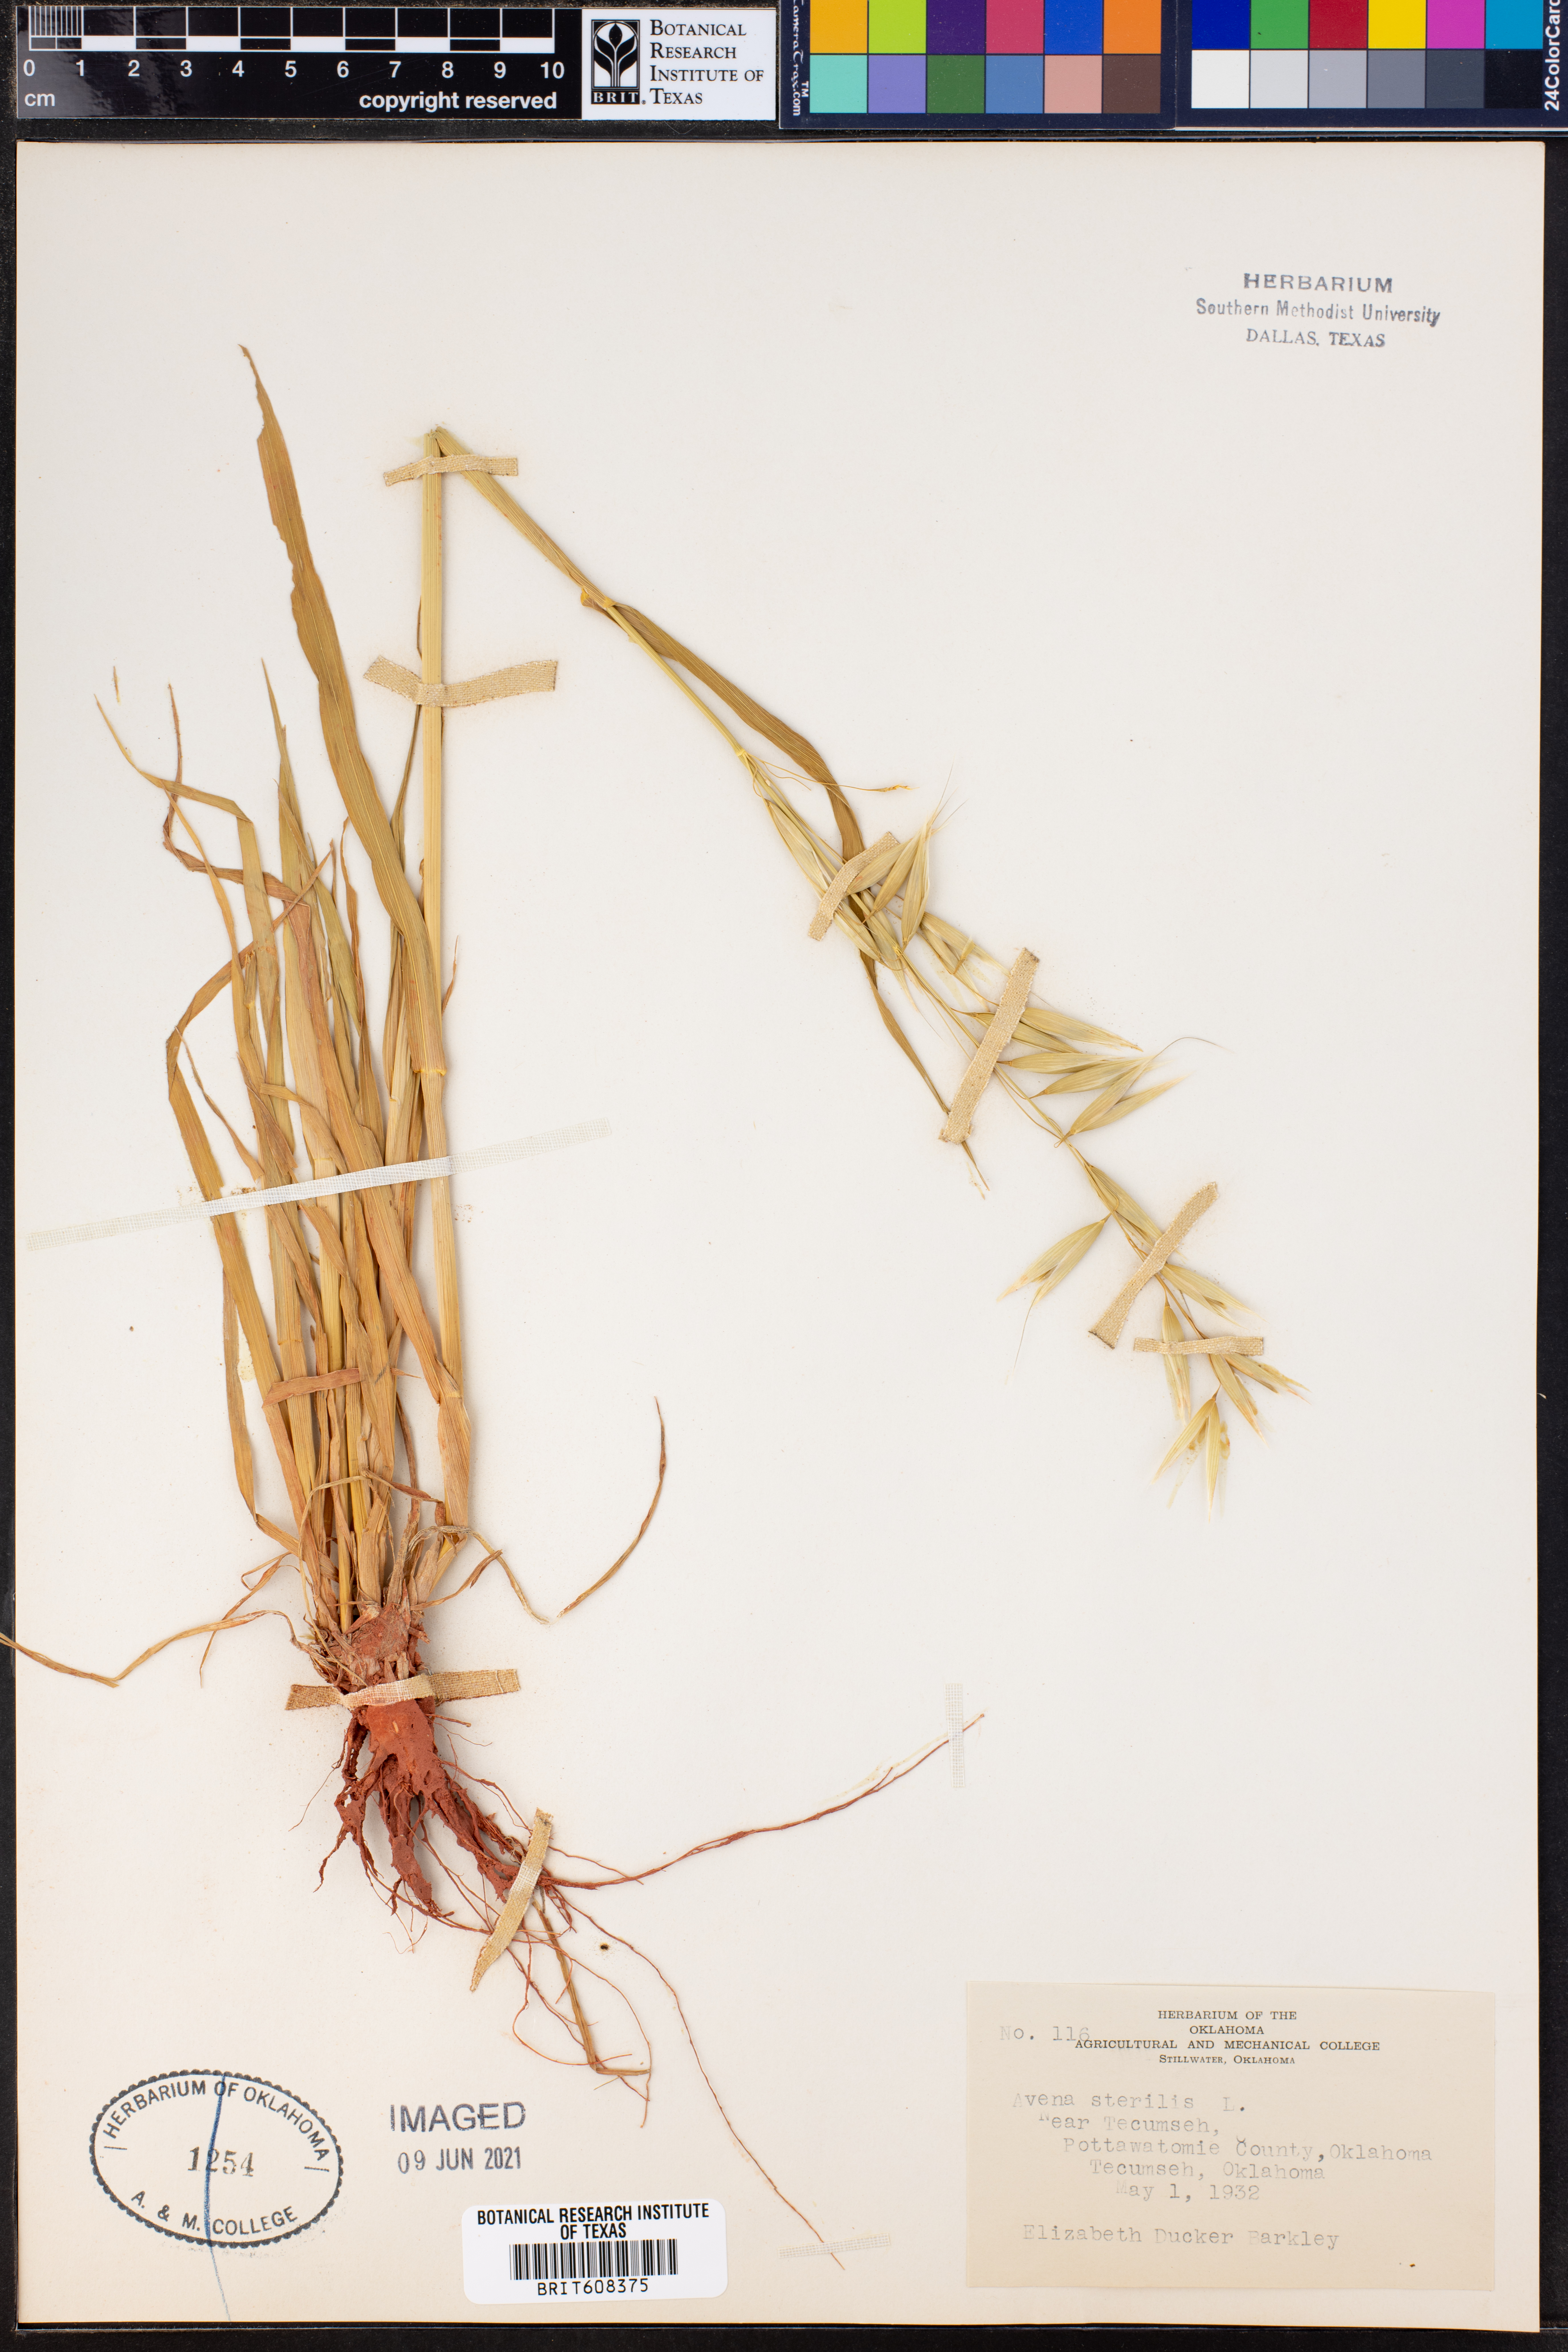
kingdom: Plantae
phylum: Tracheophyta
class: Liliopsida
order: Poales
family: Poaceae
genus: Avena
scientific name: Avena sterilis
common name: Animated oat
